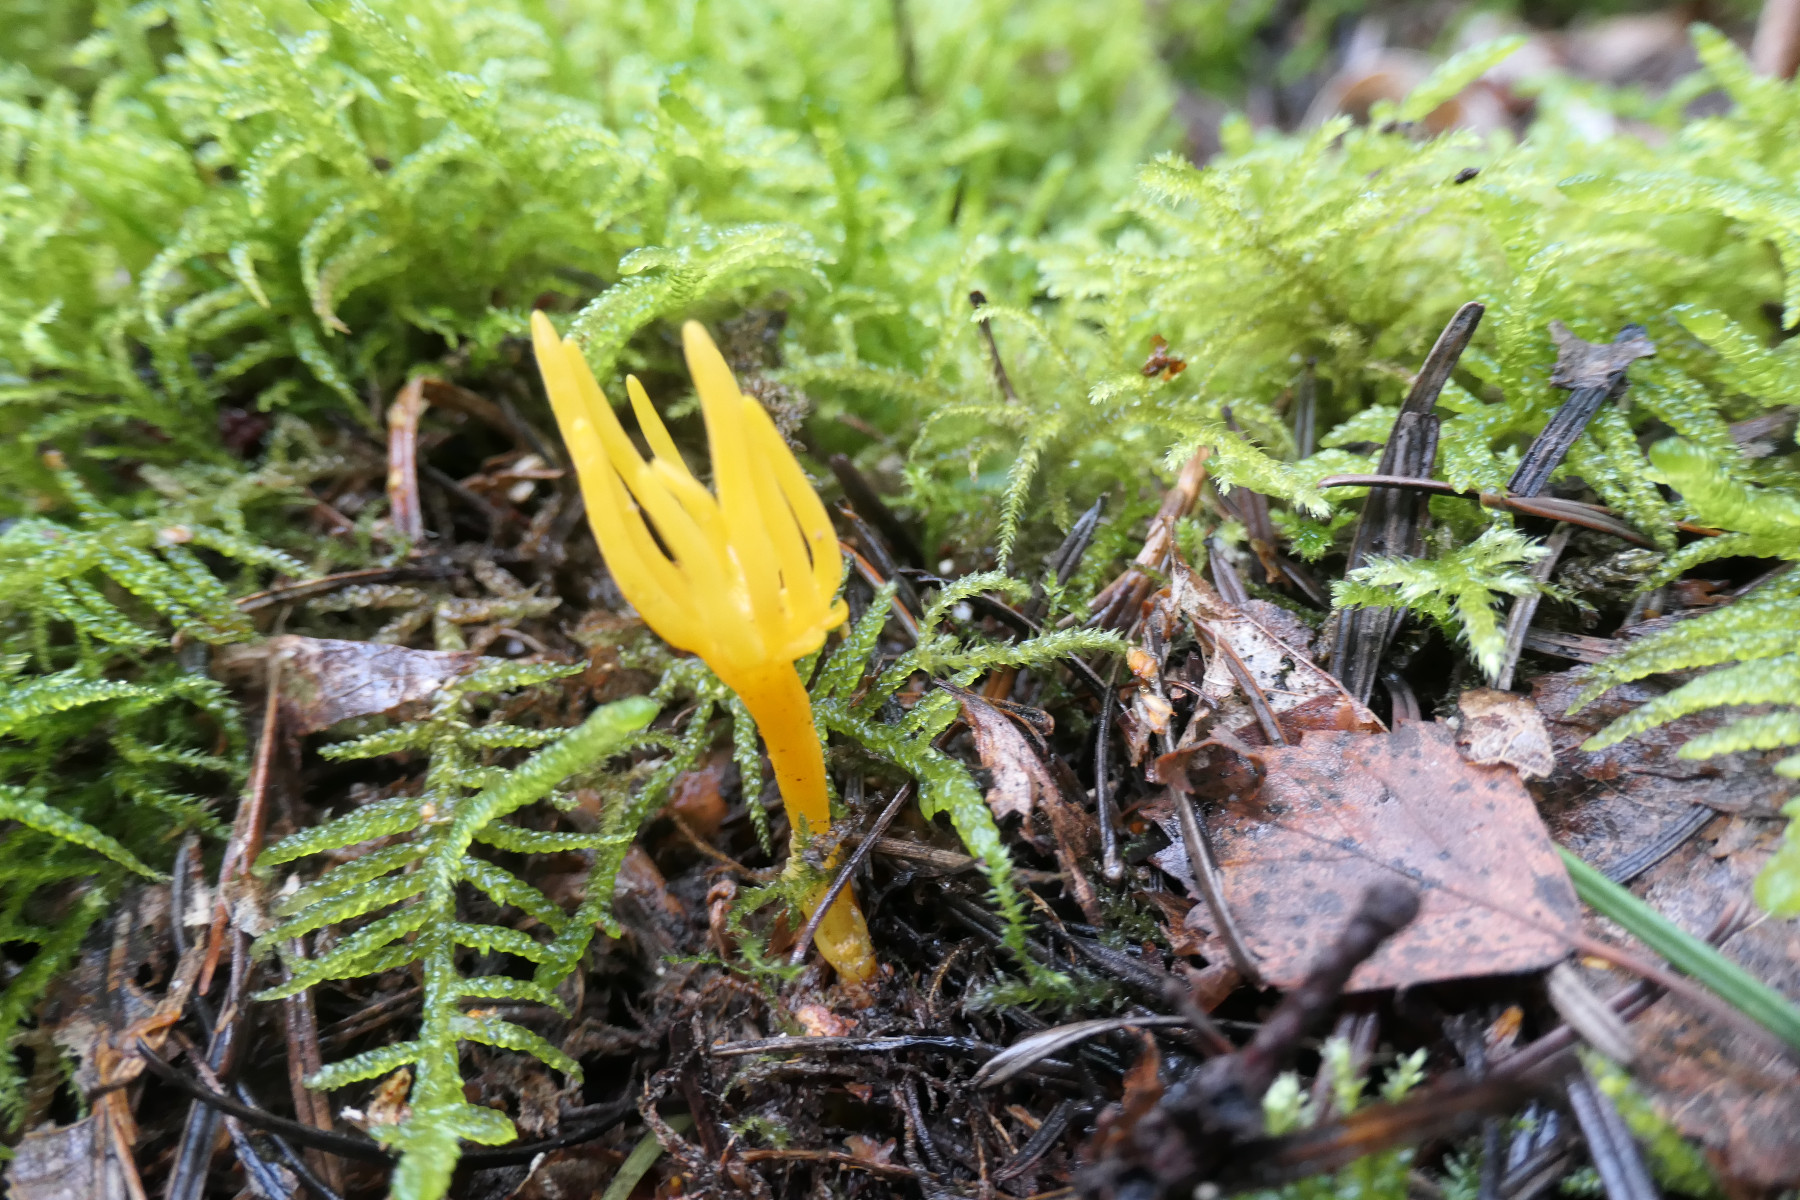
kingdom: Fungi
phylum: Basidiomycota
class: Dacrymycetes
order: Dacrymycetales
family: Dacrymycetaceae
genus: Calocera
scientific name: Calocera viscosa
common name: almindelig guldgaffel
